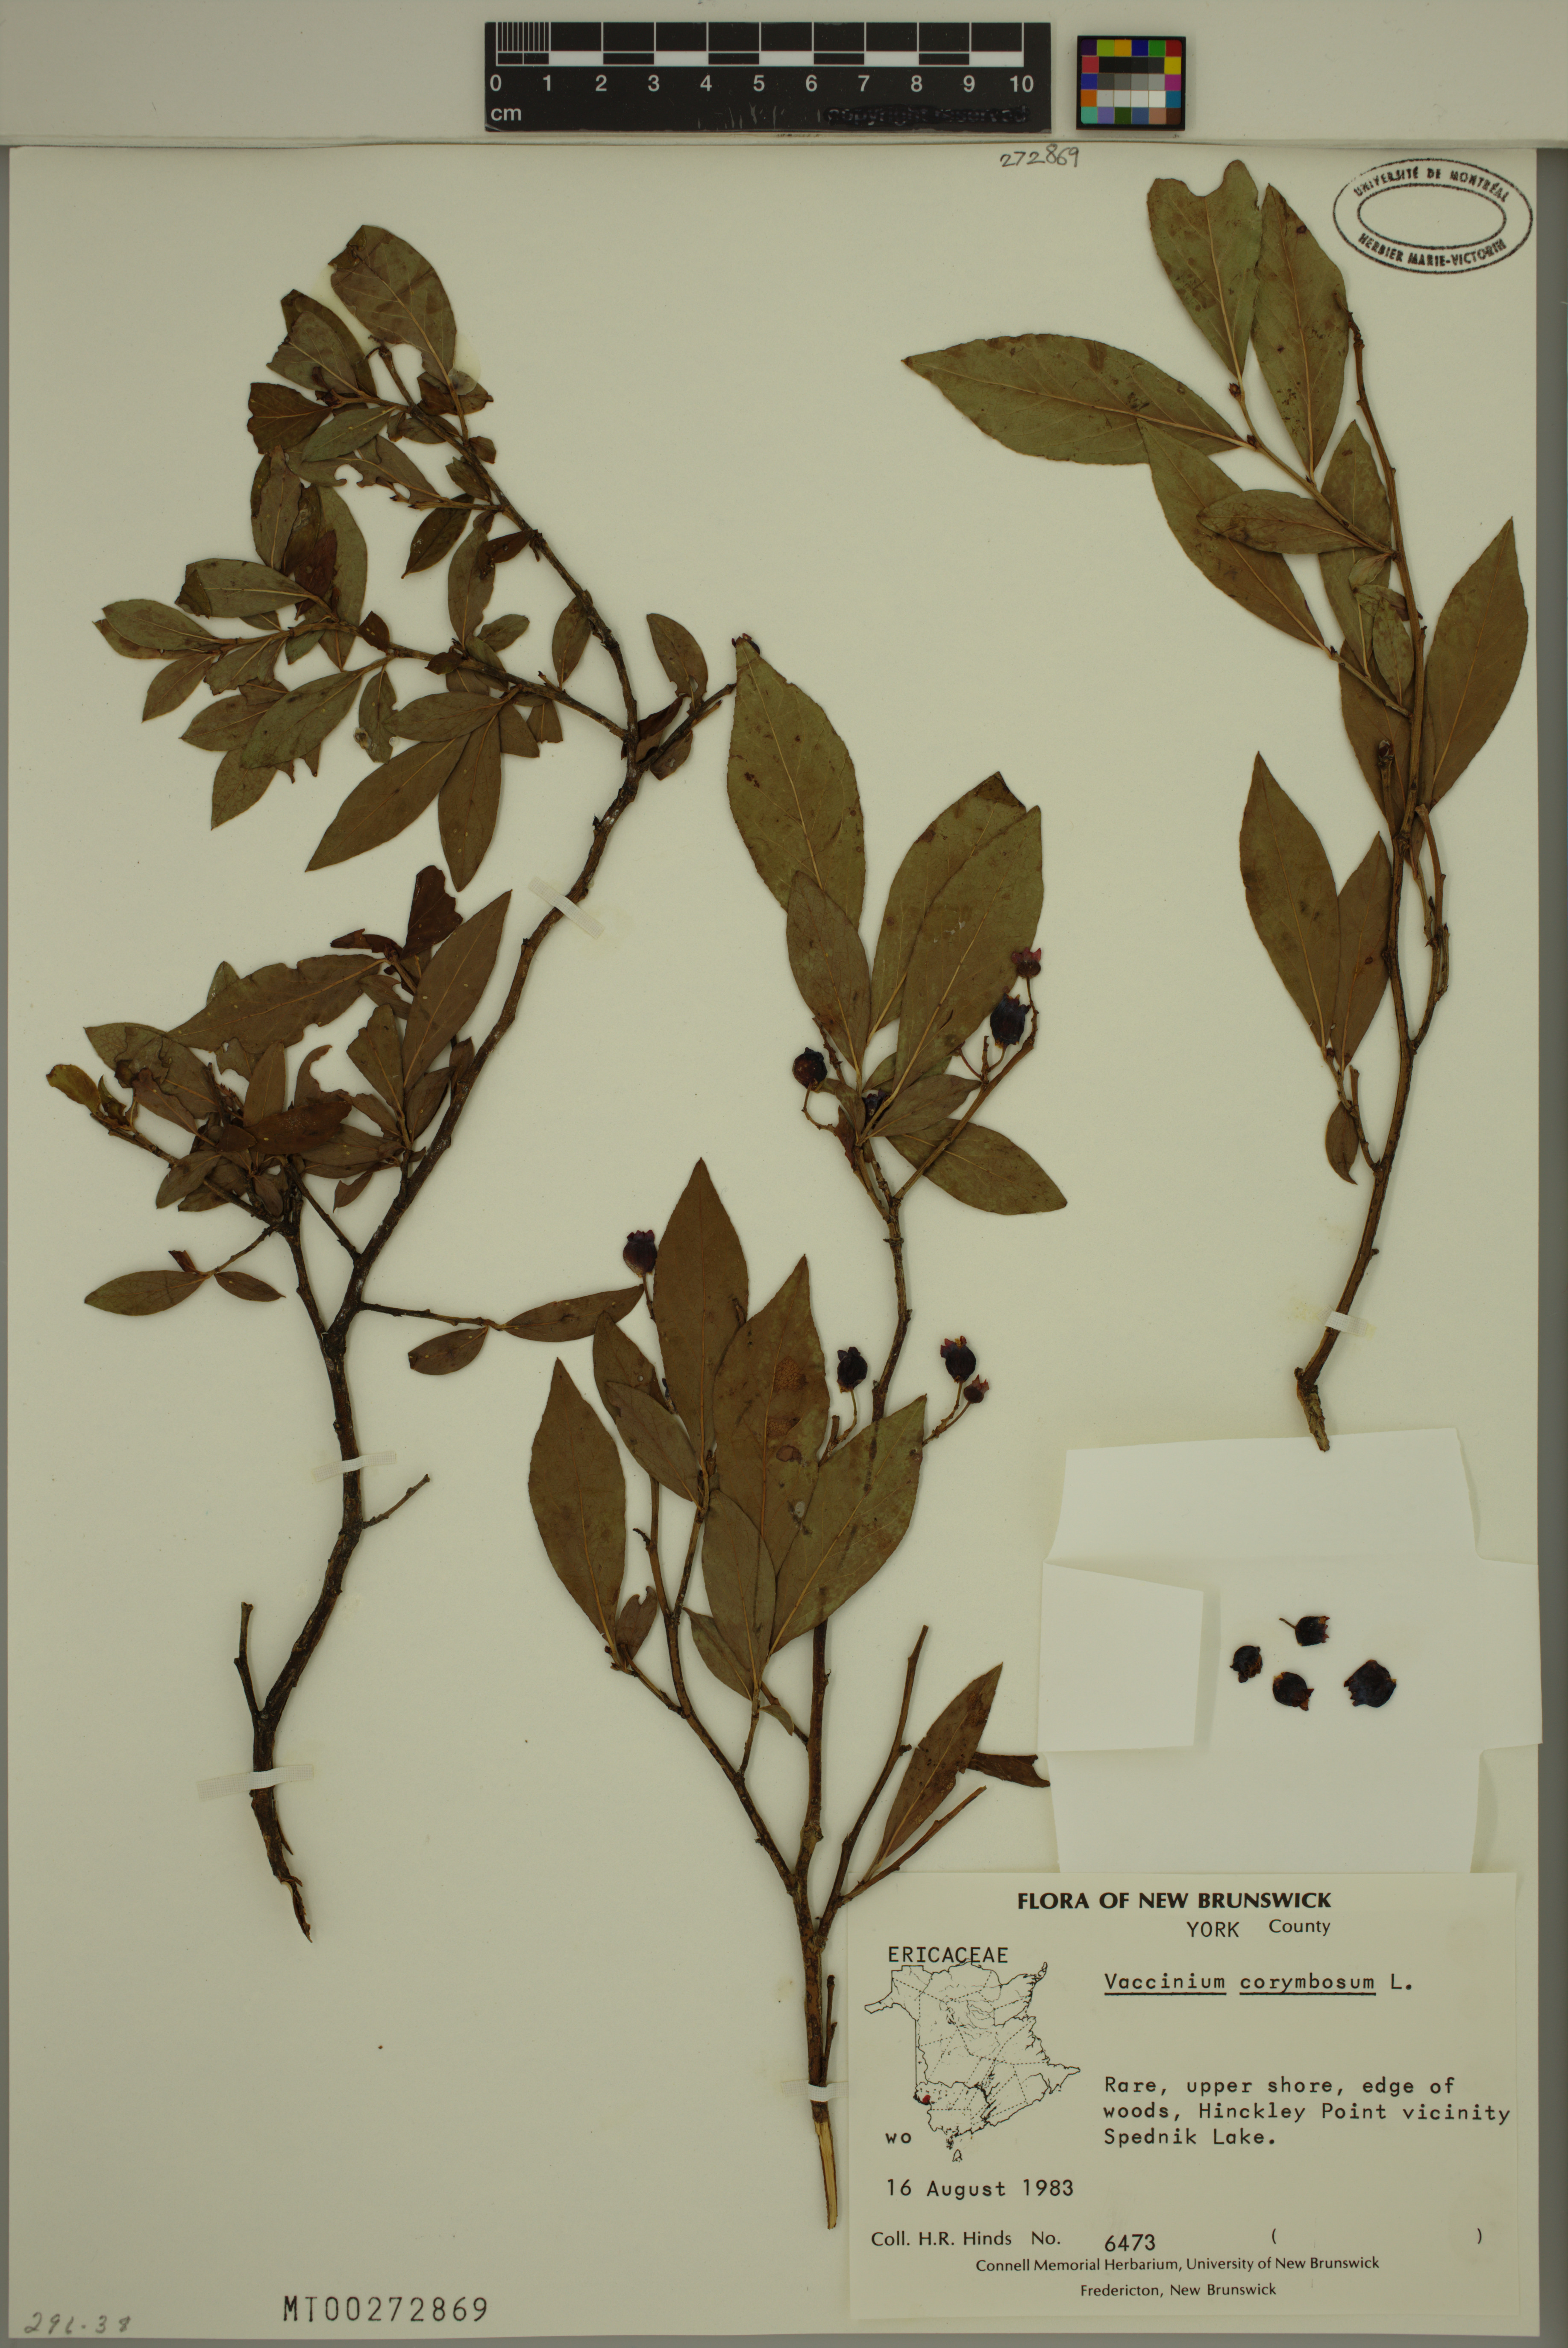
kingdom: Plantae
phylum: Tracheophyta
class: Magnoliopsida
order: Ericales
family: Ericaceae
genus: Vaccinium
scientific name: Vaccinium corymbosum
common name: Blueberry
